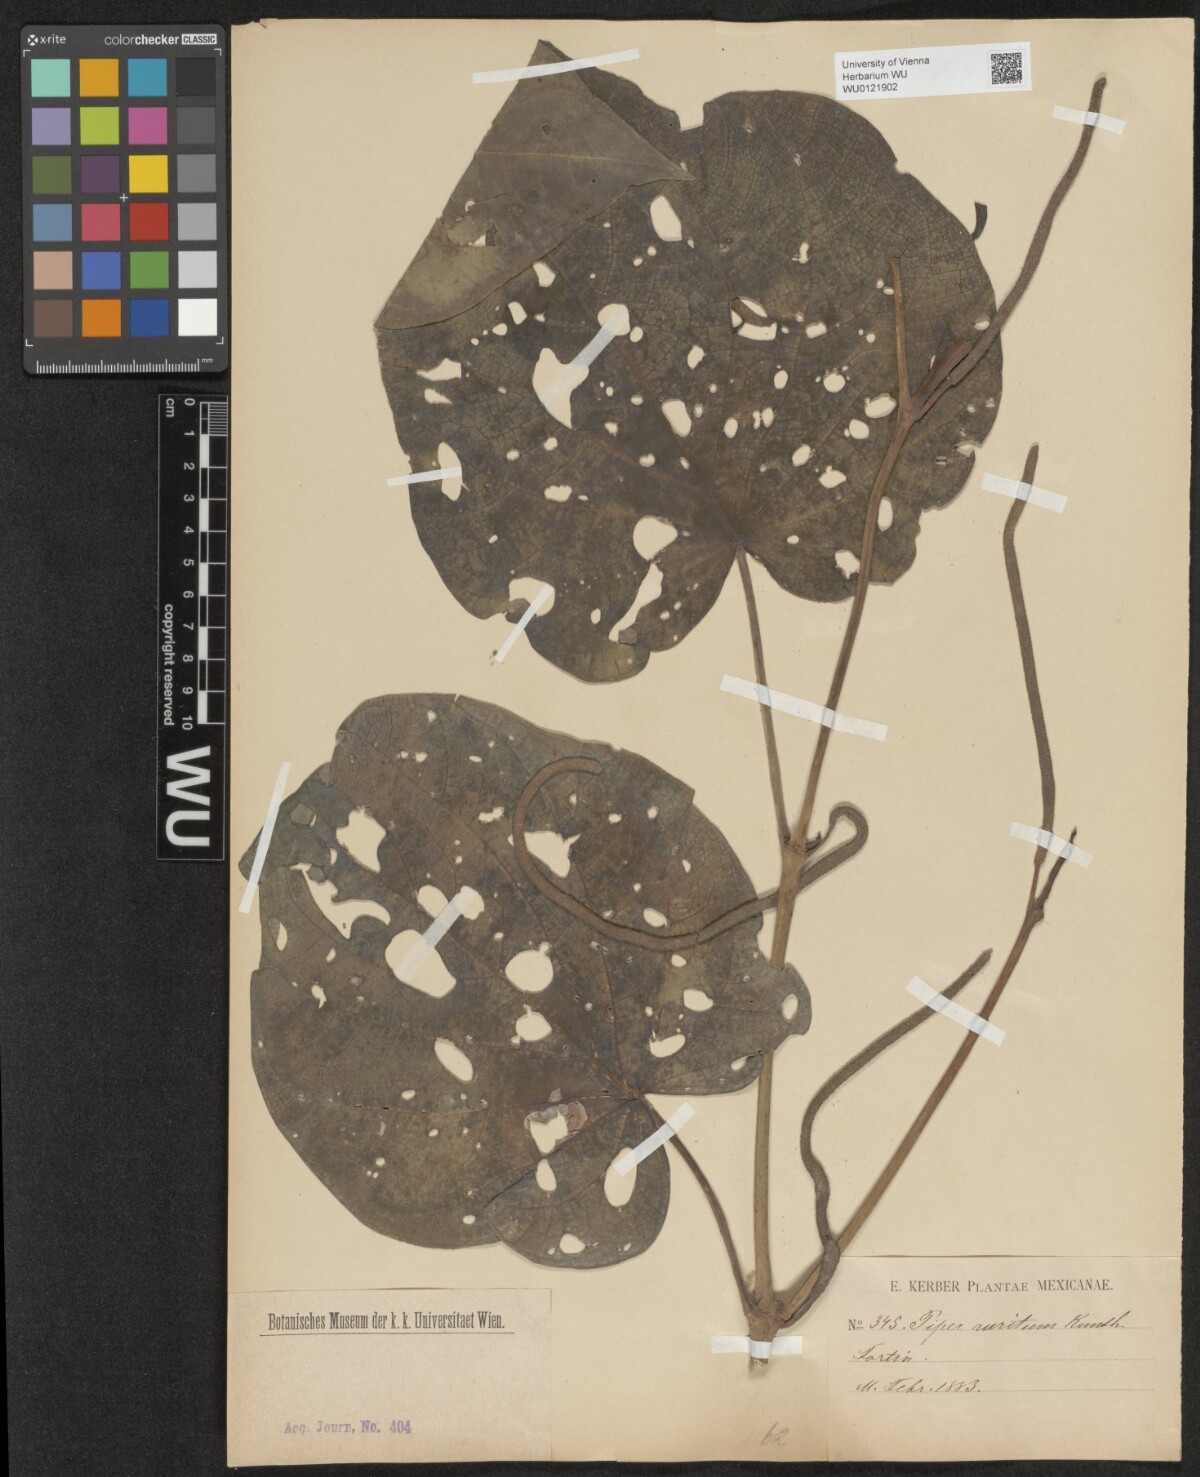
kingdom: Plantae
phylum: Tracheophyta
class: Magnoliopsida
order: Piperales
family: Piperaceae
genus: Piper
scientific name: Piper auritum
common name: Vera cruz pepper
